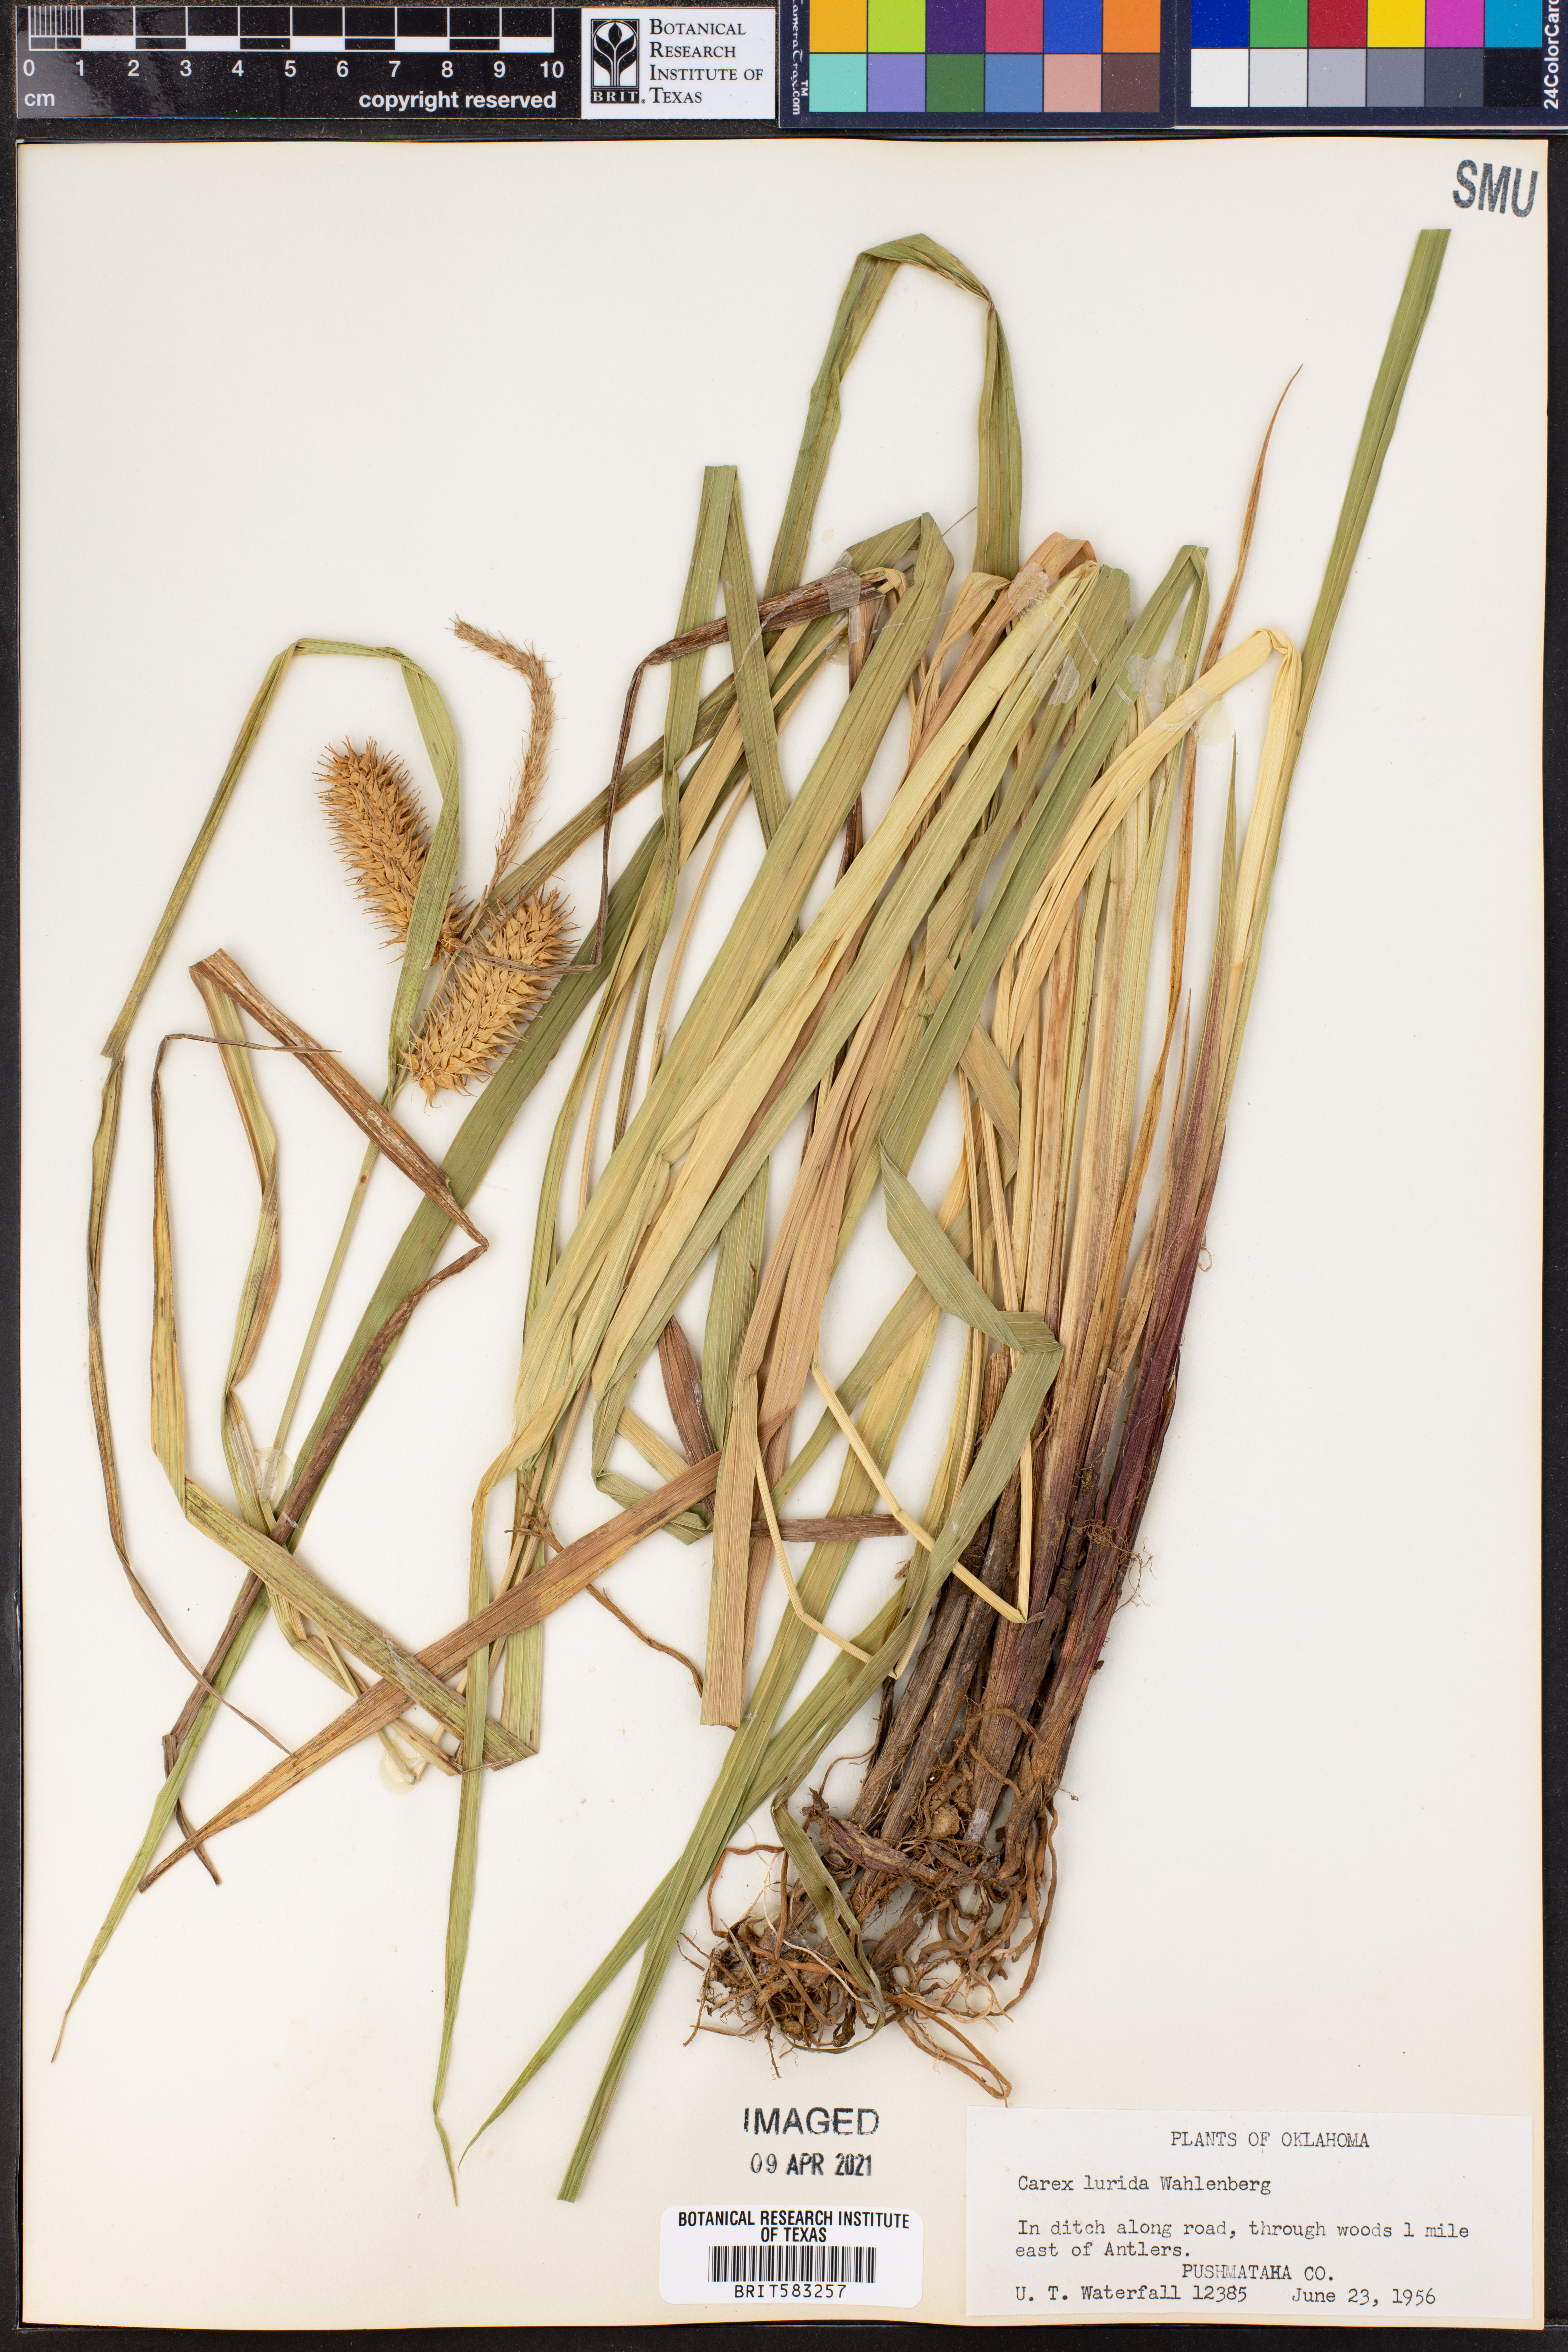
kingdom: Plantae
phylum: Tracheophyta
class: Liliopsida
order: Poales
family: Cyperaceae
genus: Carex
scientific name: Carex lurida
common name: Sallow sedge
